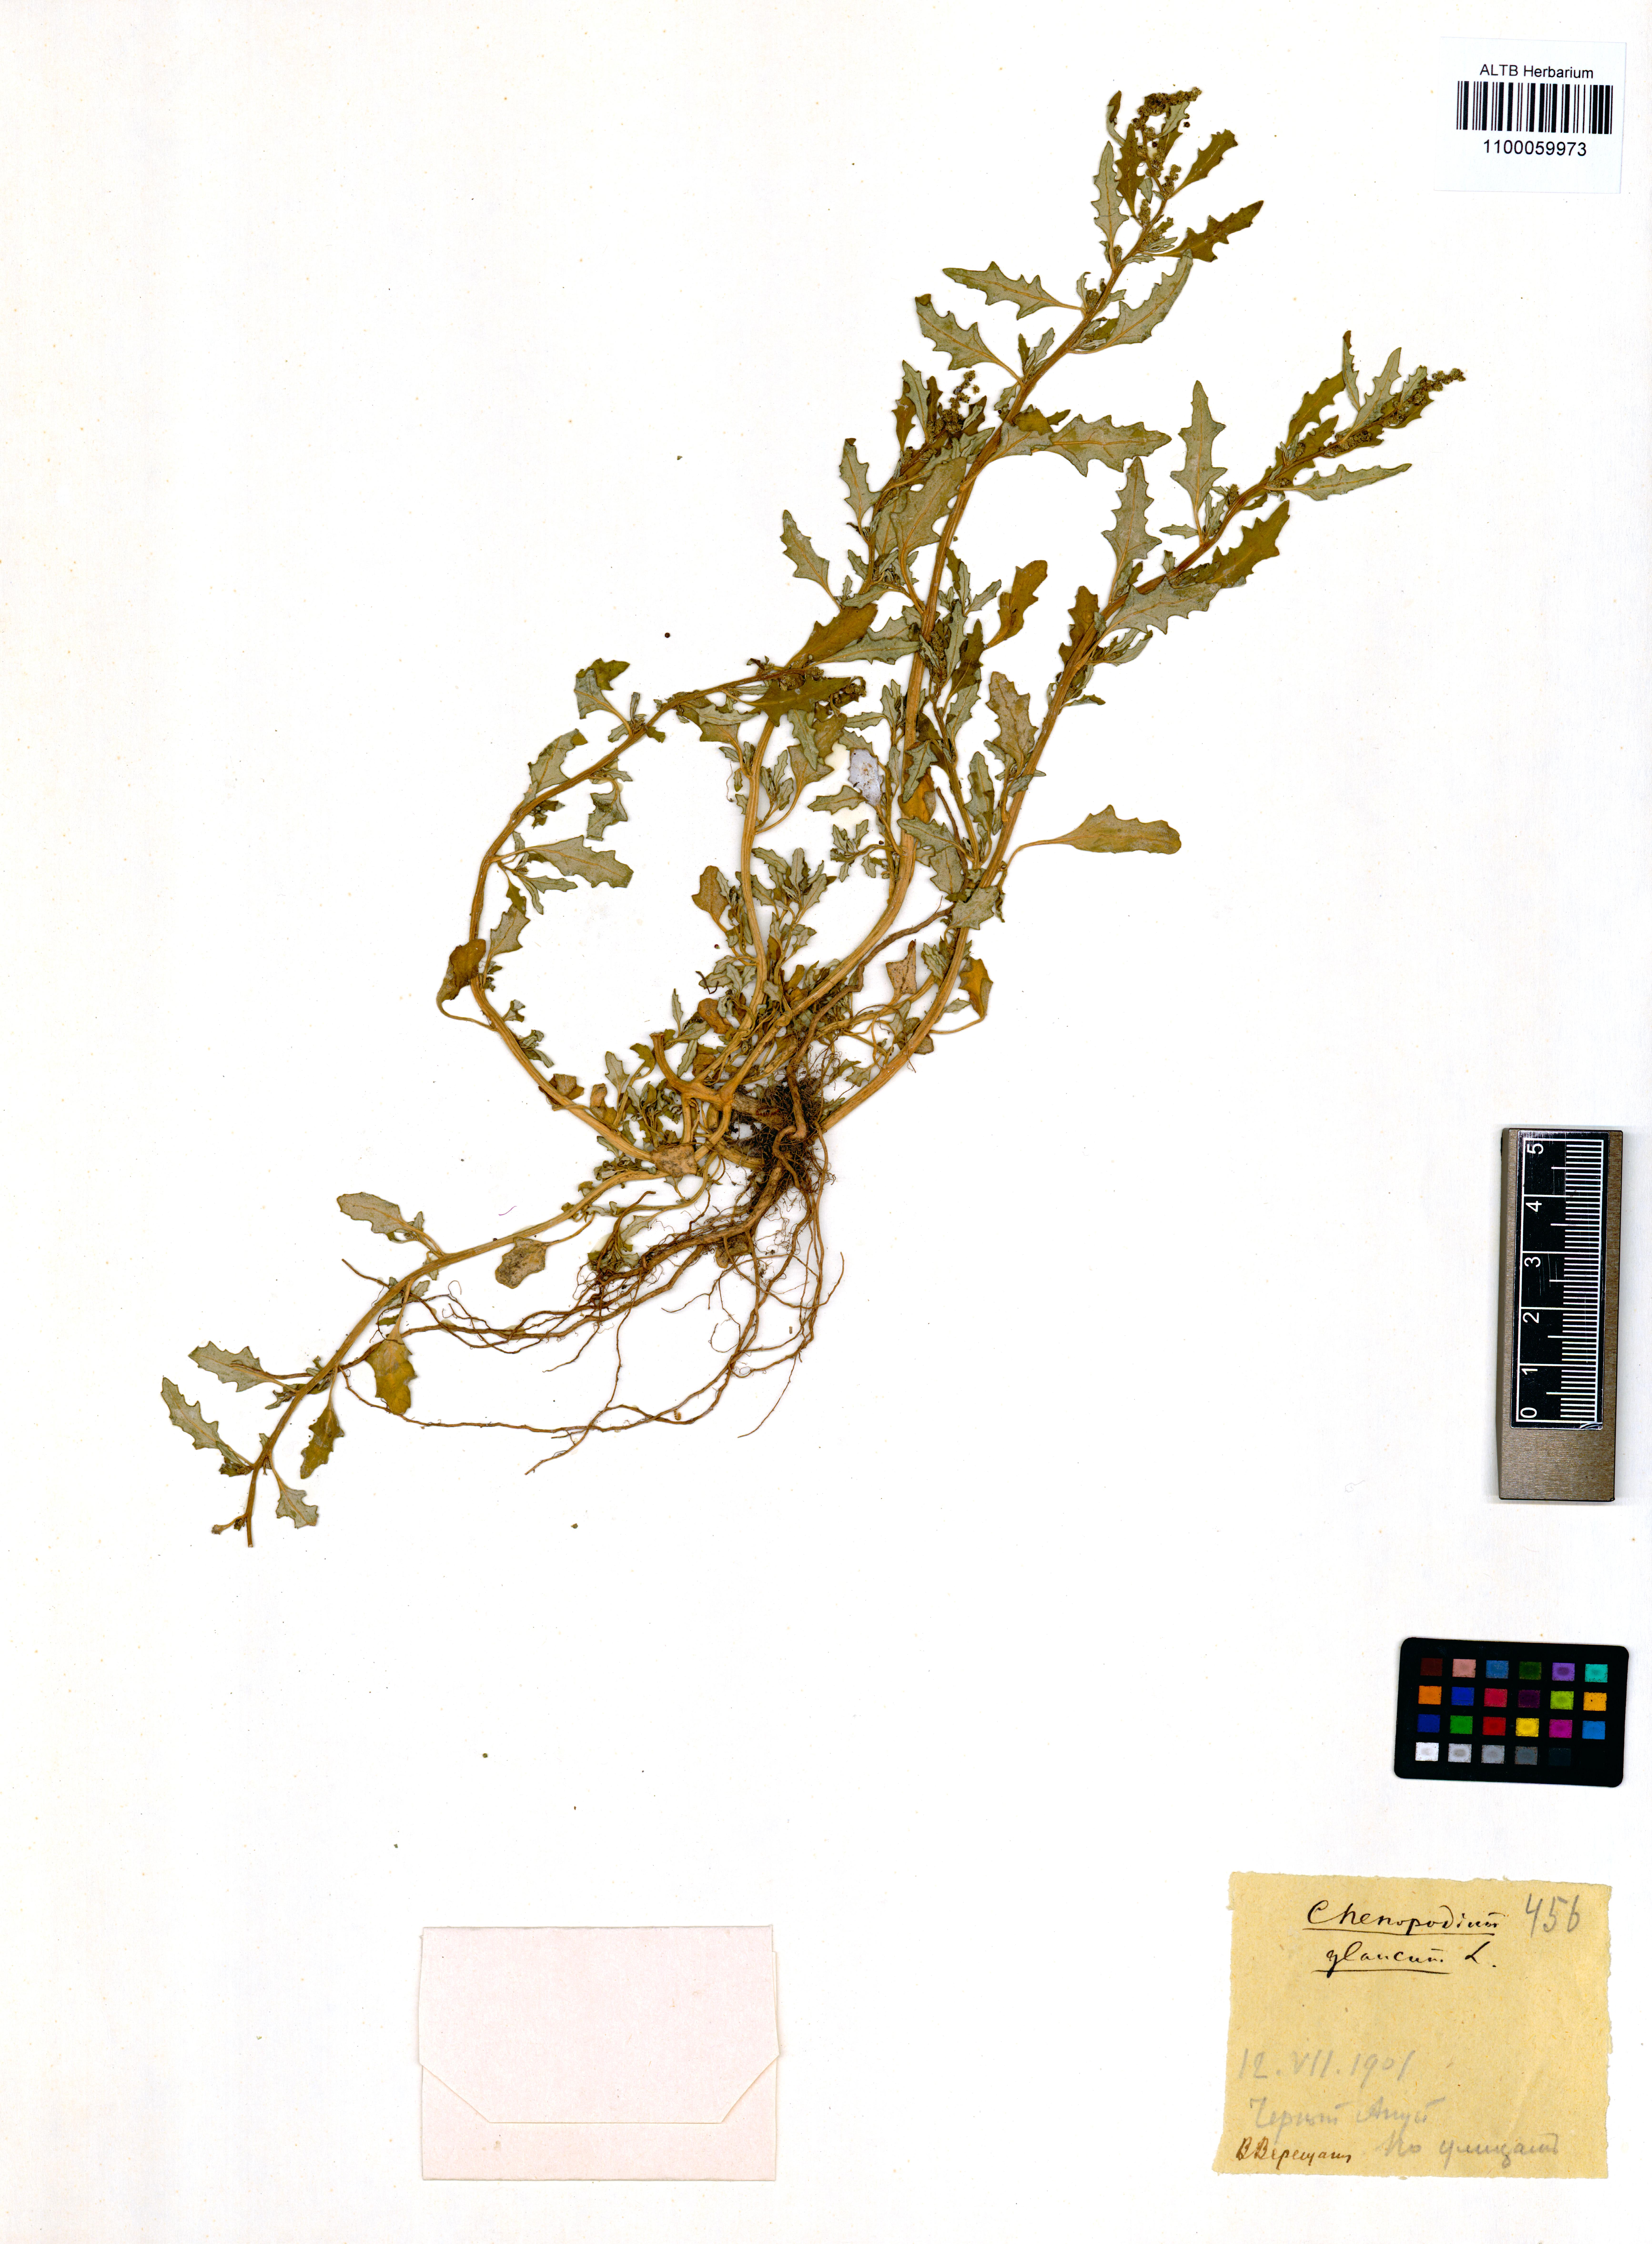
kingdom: Plantae
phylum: Tracheophyta
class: Magnoliopsida
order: Caryophyllales
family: Amaranthaceae
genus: Oxybasis
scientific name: Oxybasis glauca
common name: Glaucous goosefoot
